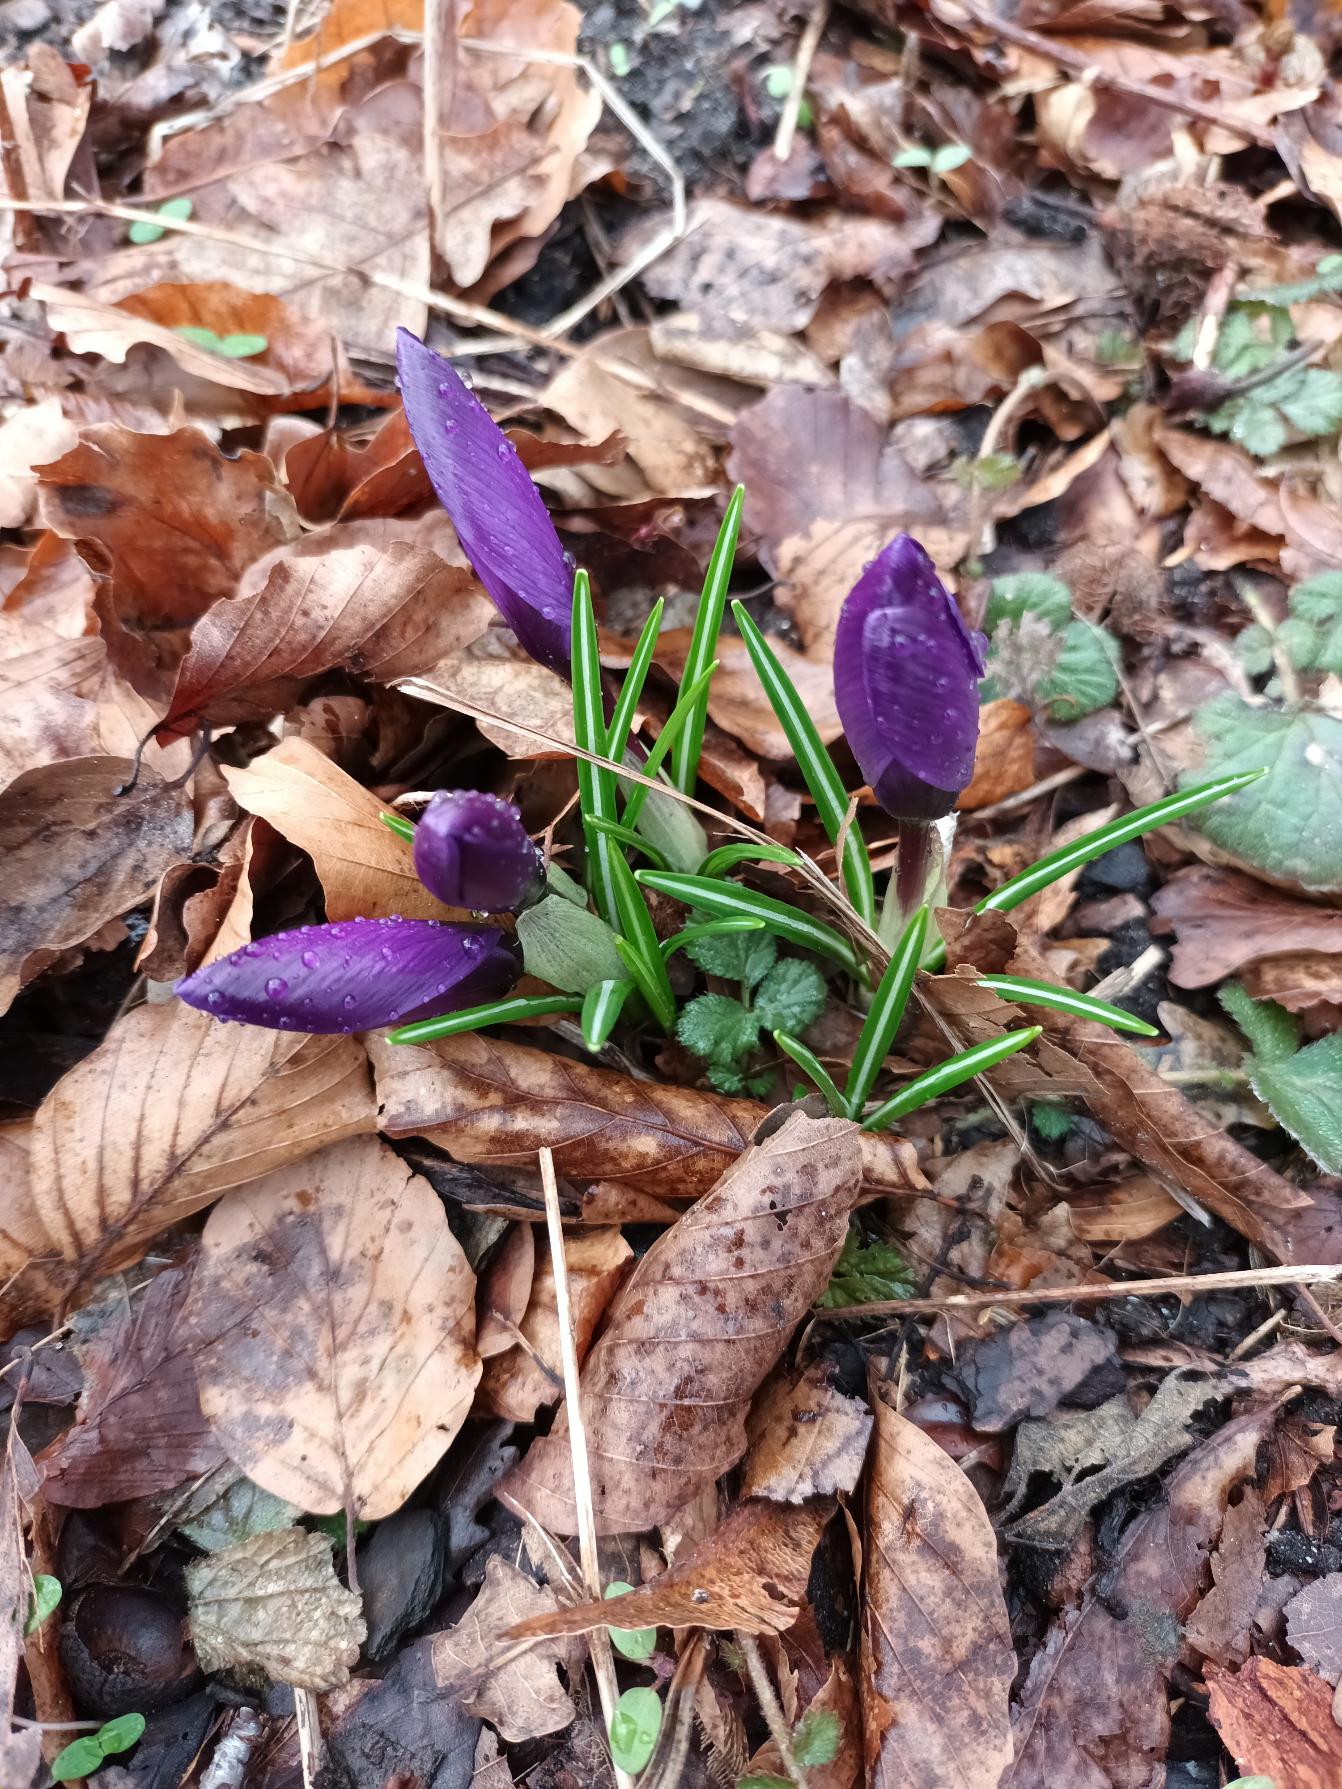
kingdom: Plantae
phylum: Tracheophyta
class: Liliopsida
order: Asparagales
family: Iridaceae
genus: Crocus
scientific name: Crocus vernus
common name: Vår-krokus
